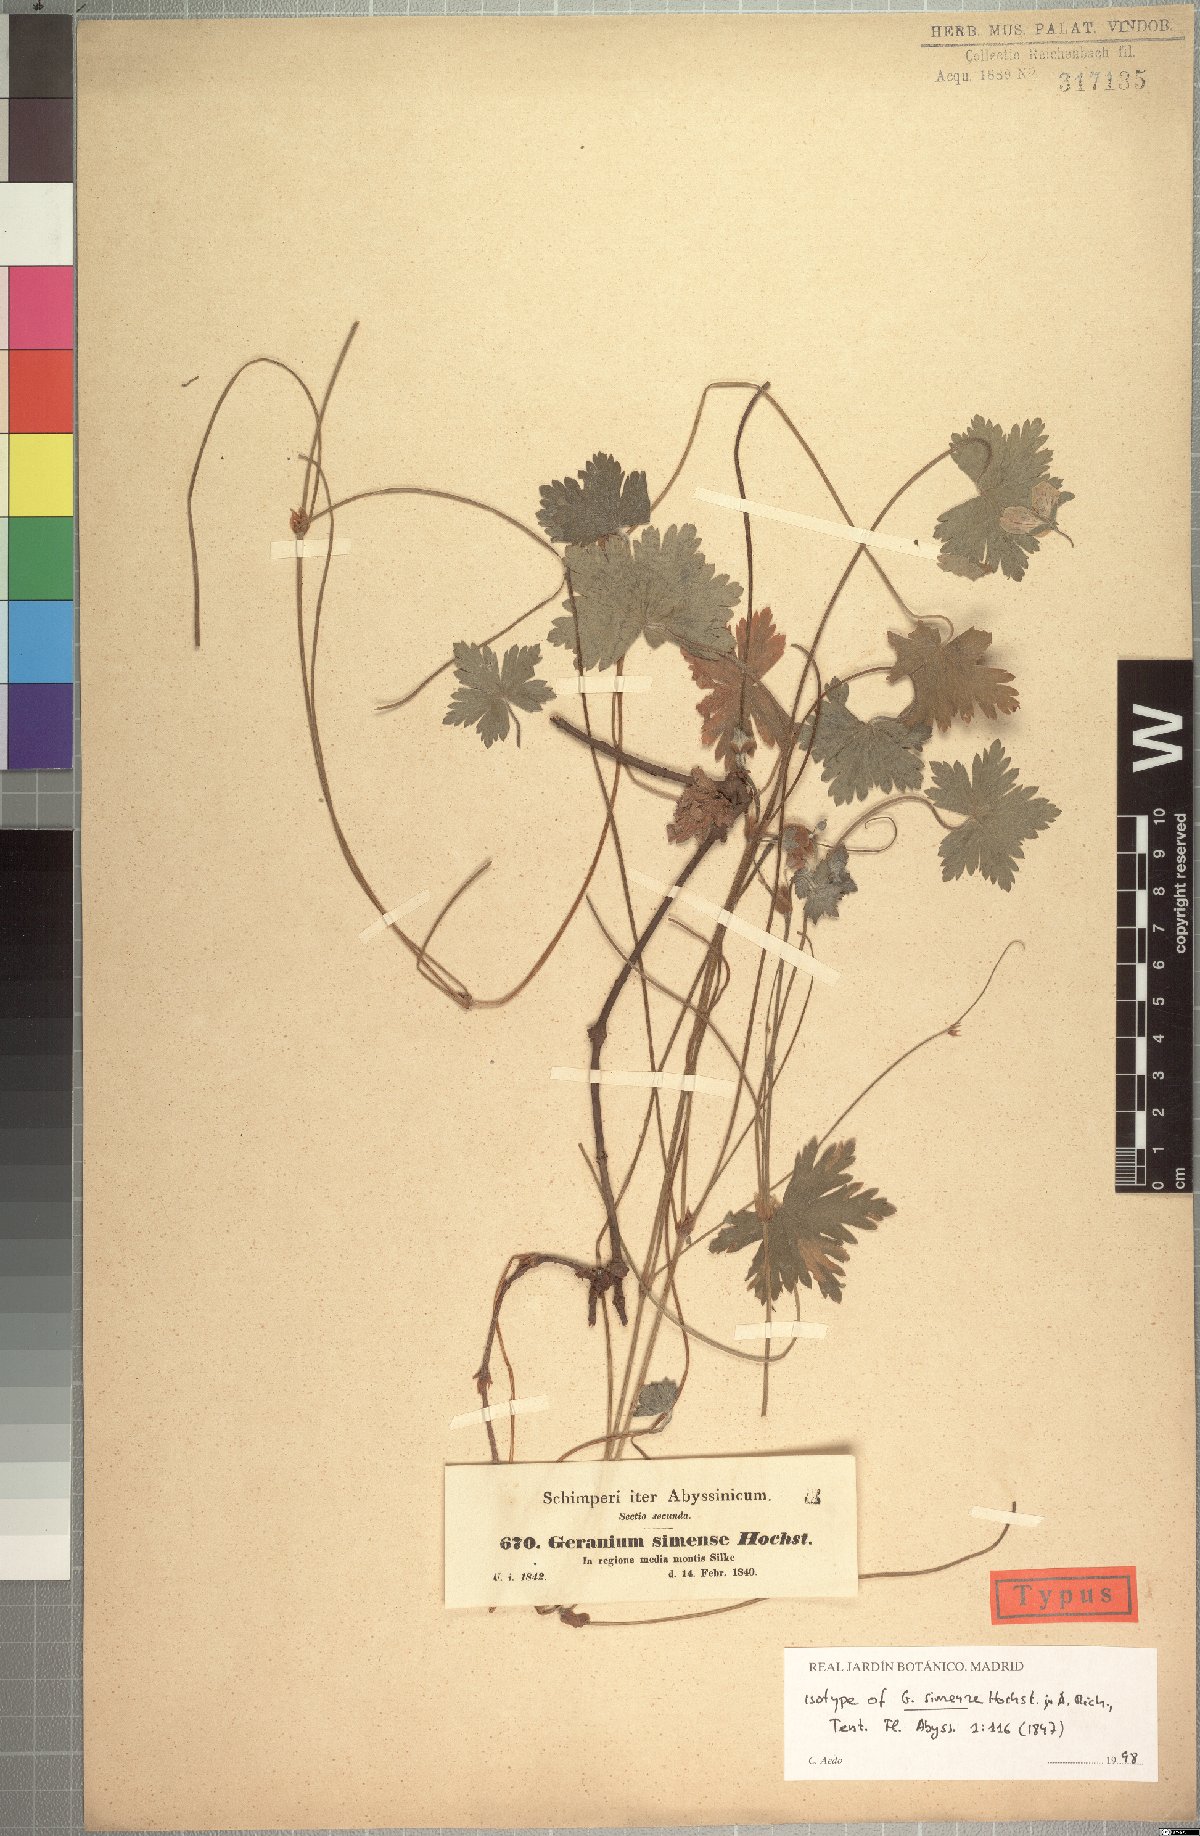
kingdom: Plantae
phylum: Tracheophyta
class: Magnoliopsida
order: Geraniales
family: Geraniaceae
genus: Geranium
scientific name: Geranium arabicum
